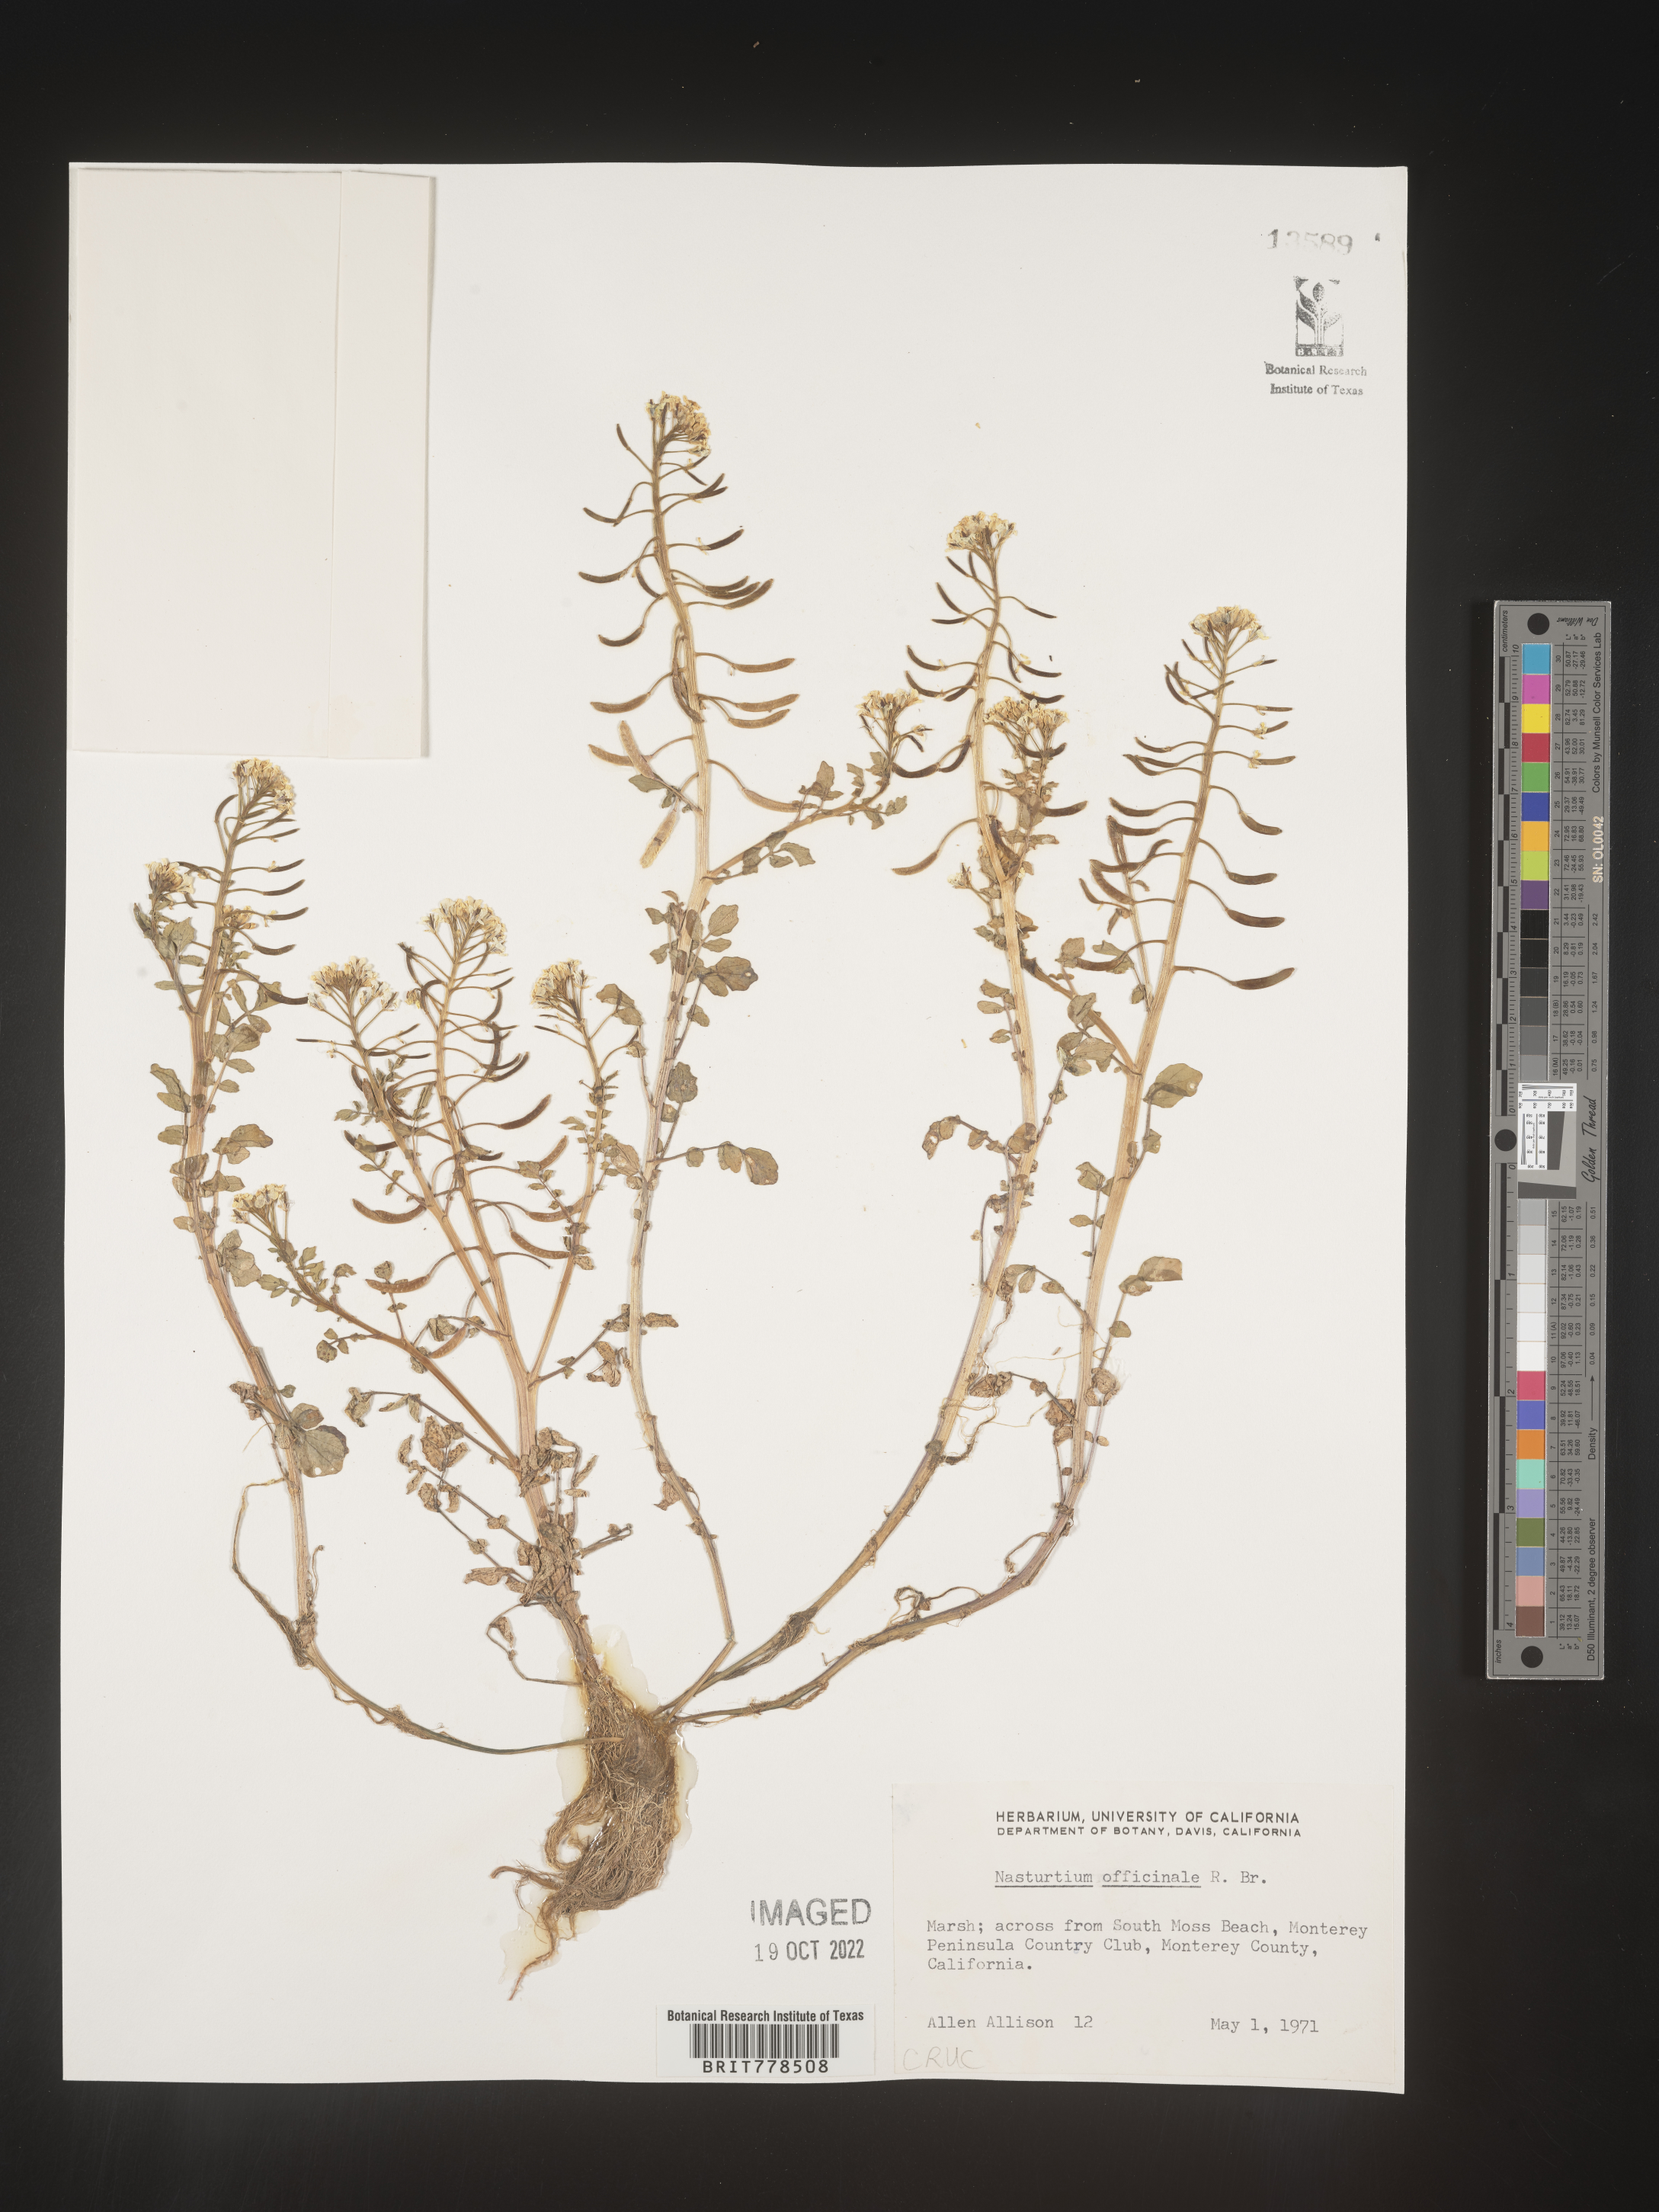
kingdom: Plantae
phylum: Tracheophyta
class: Magnoliopsida
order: Brassicales
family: Brassicaceae
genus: Nasturtium
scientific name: Nasturtium officinale
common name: Watercress
